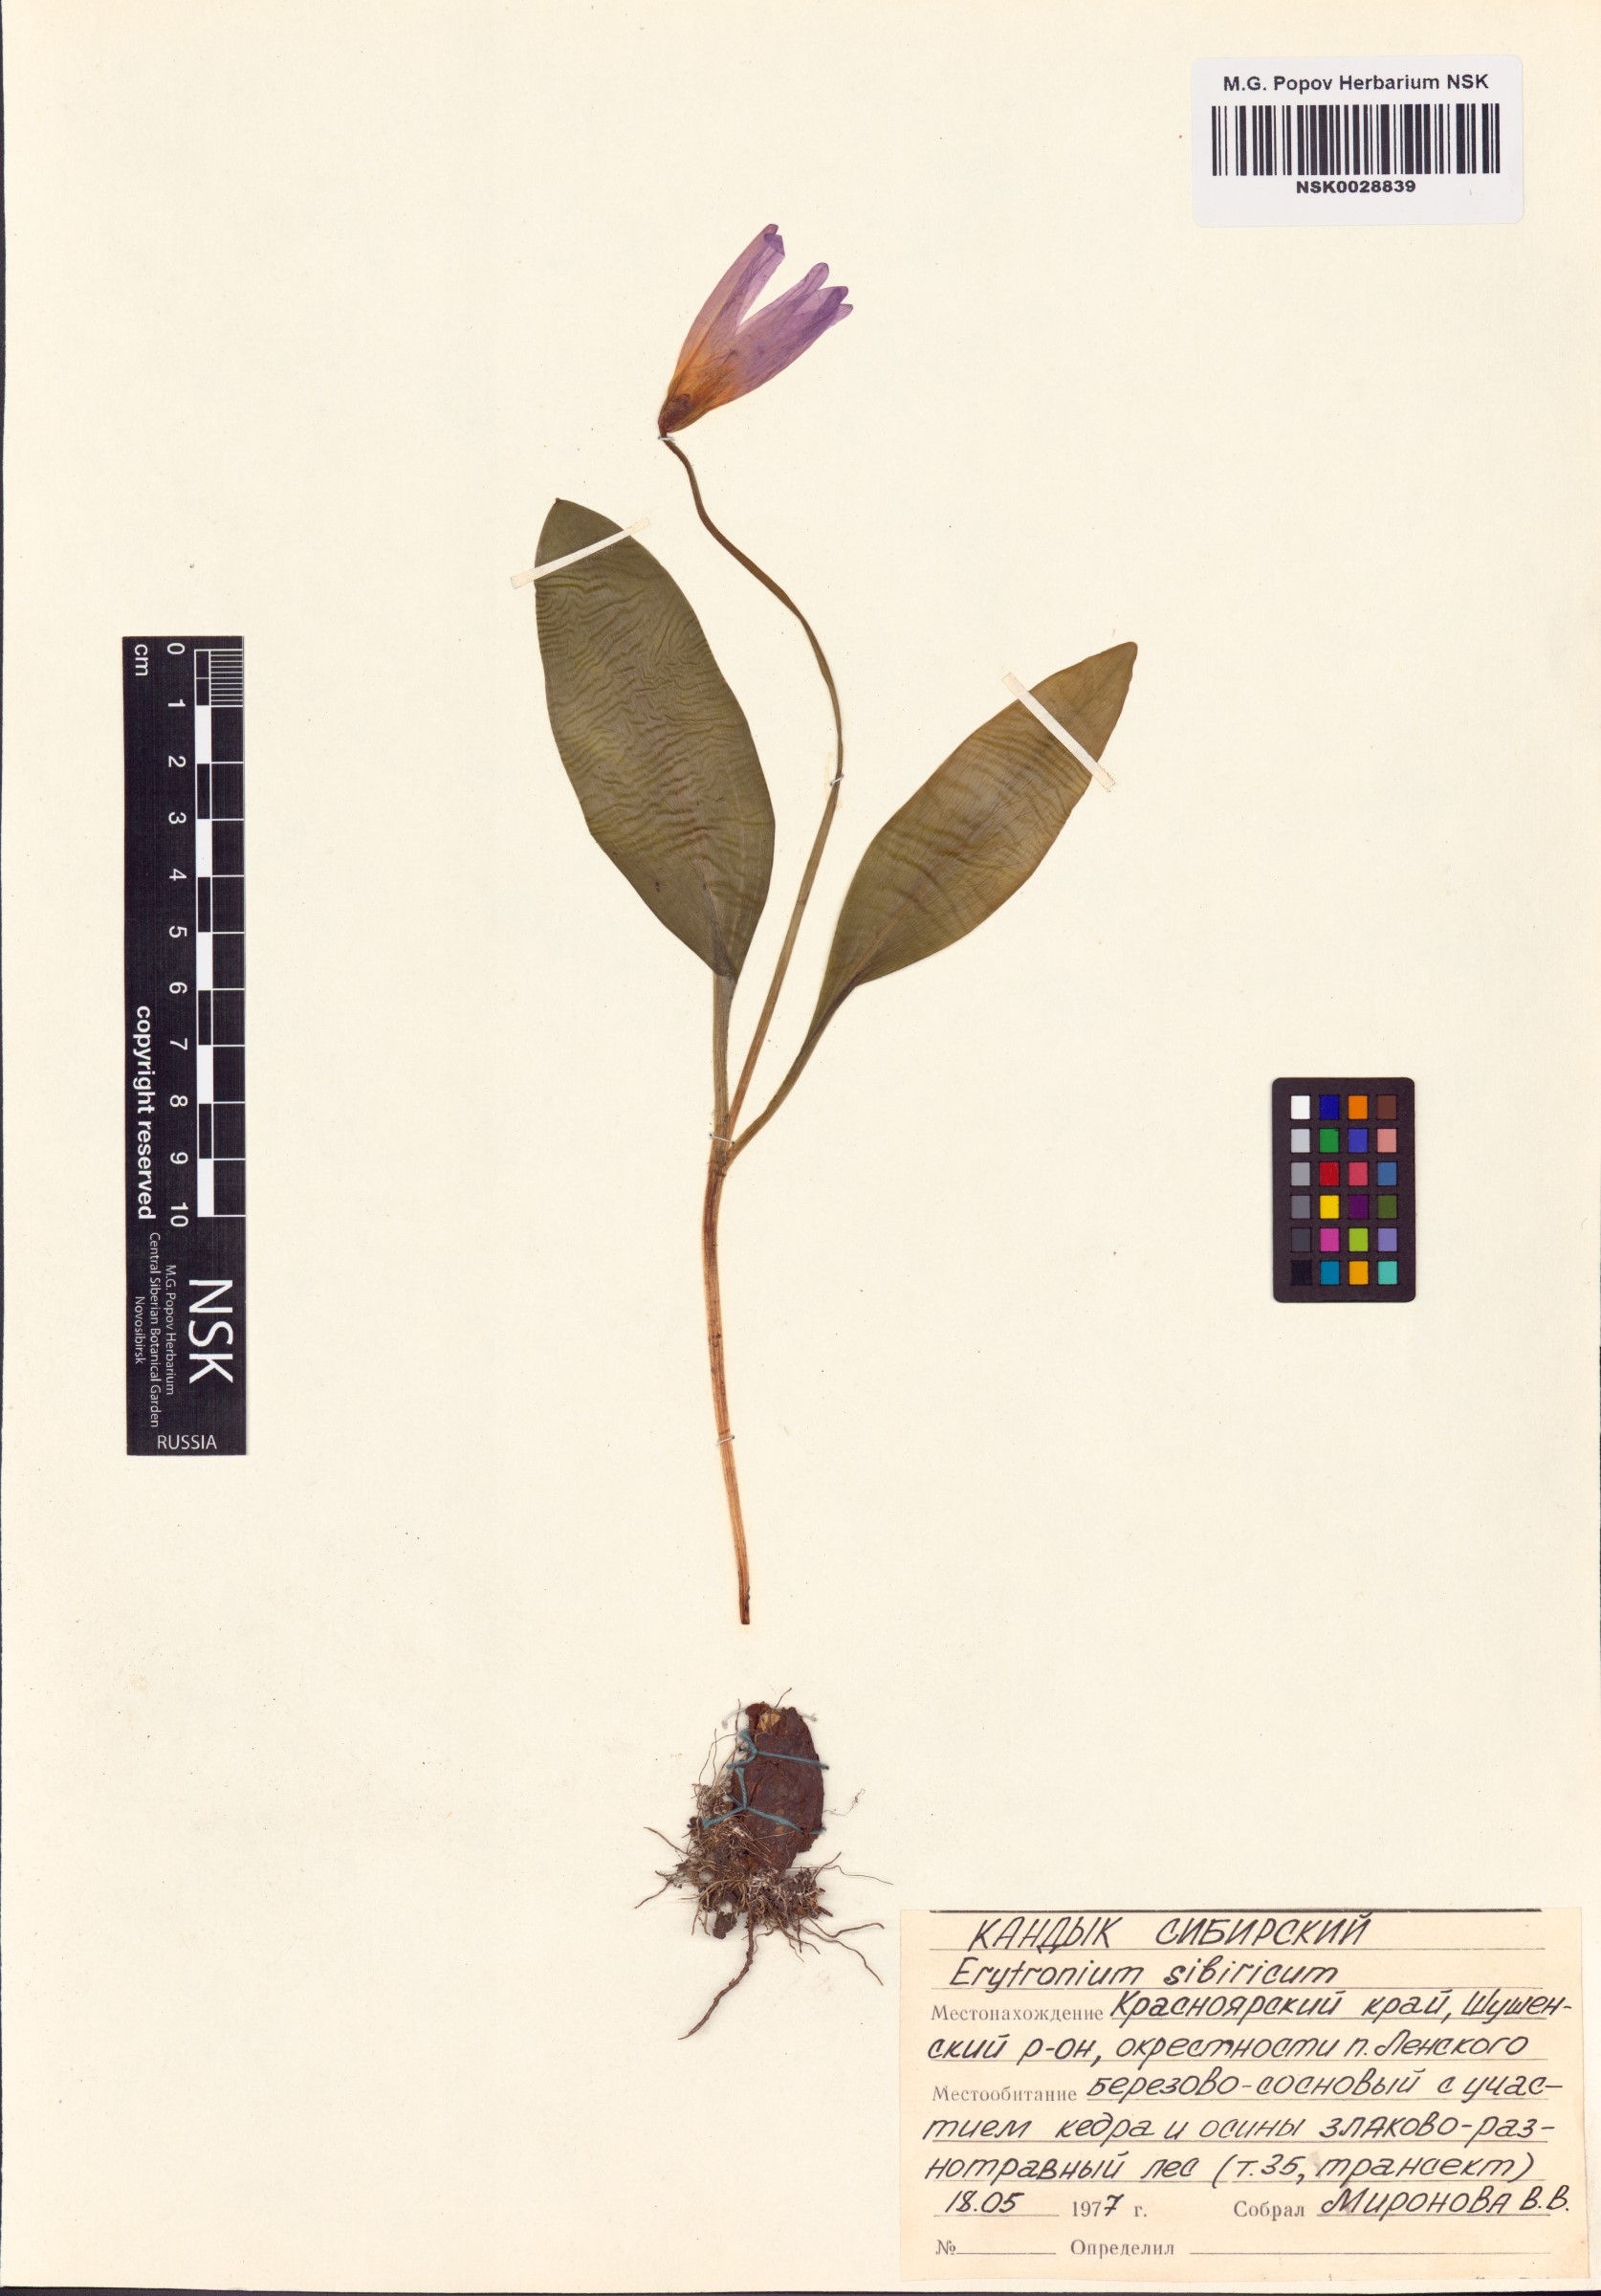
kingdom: Plantae
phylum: Tracheophyta
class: Liliopsida
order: Liliales
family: Liliaceae
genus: Erythronium
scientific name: Erythronium sibiricum
